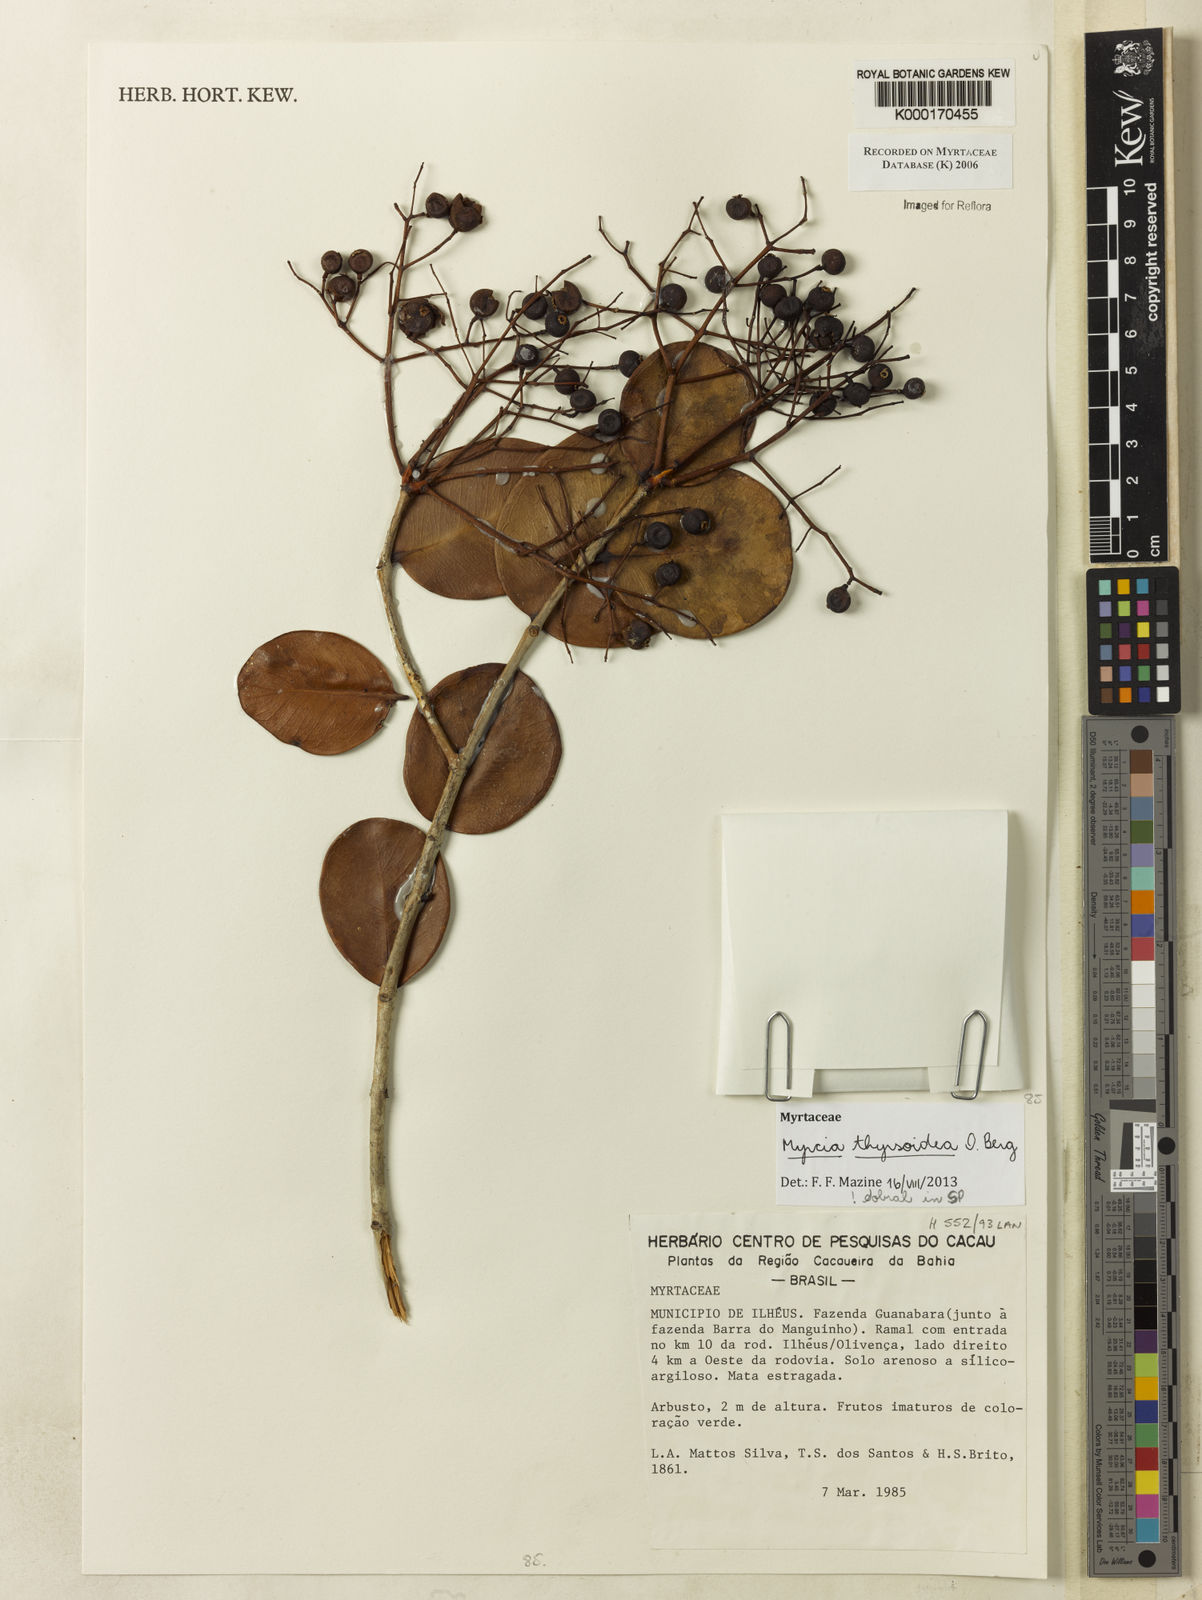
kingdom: Plantae
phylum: Tracheophyta
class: Magnoliopsida
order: Myrtales
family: Myrtaceae
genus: Marlierea
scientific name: Marlierea
